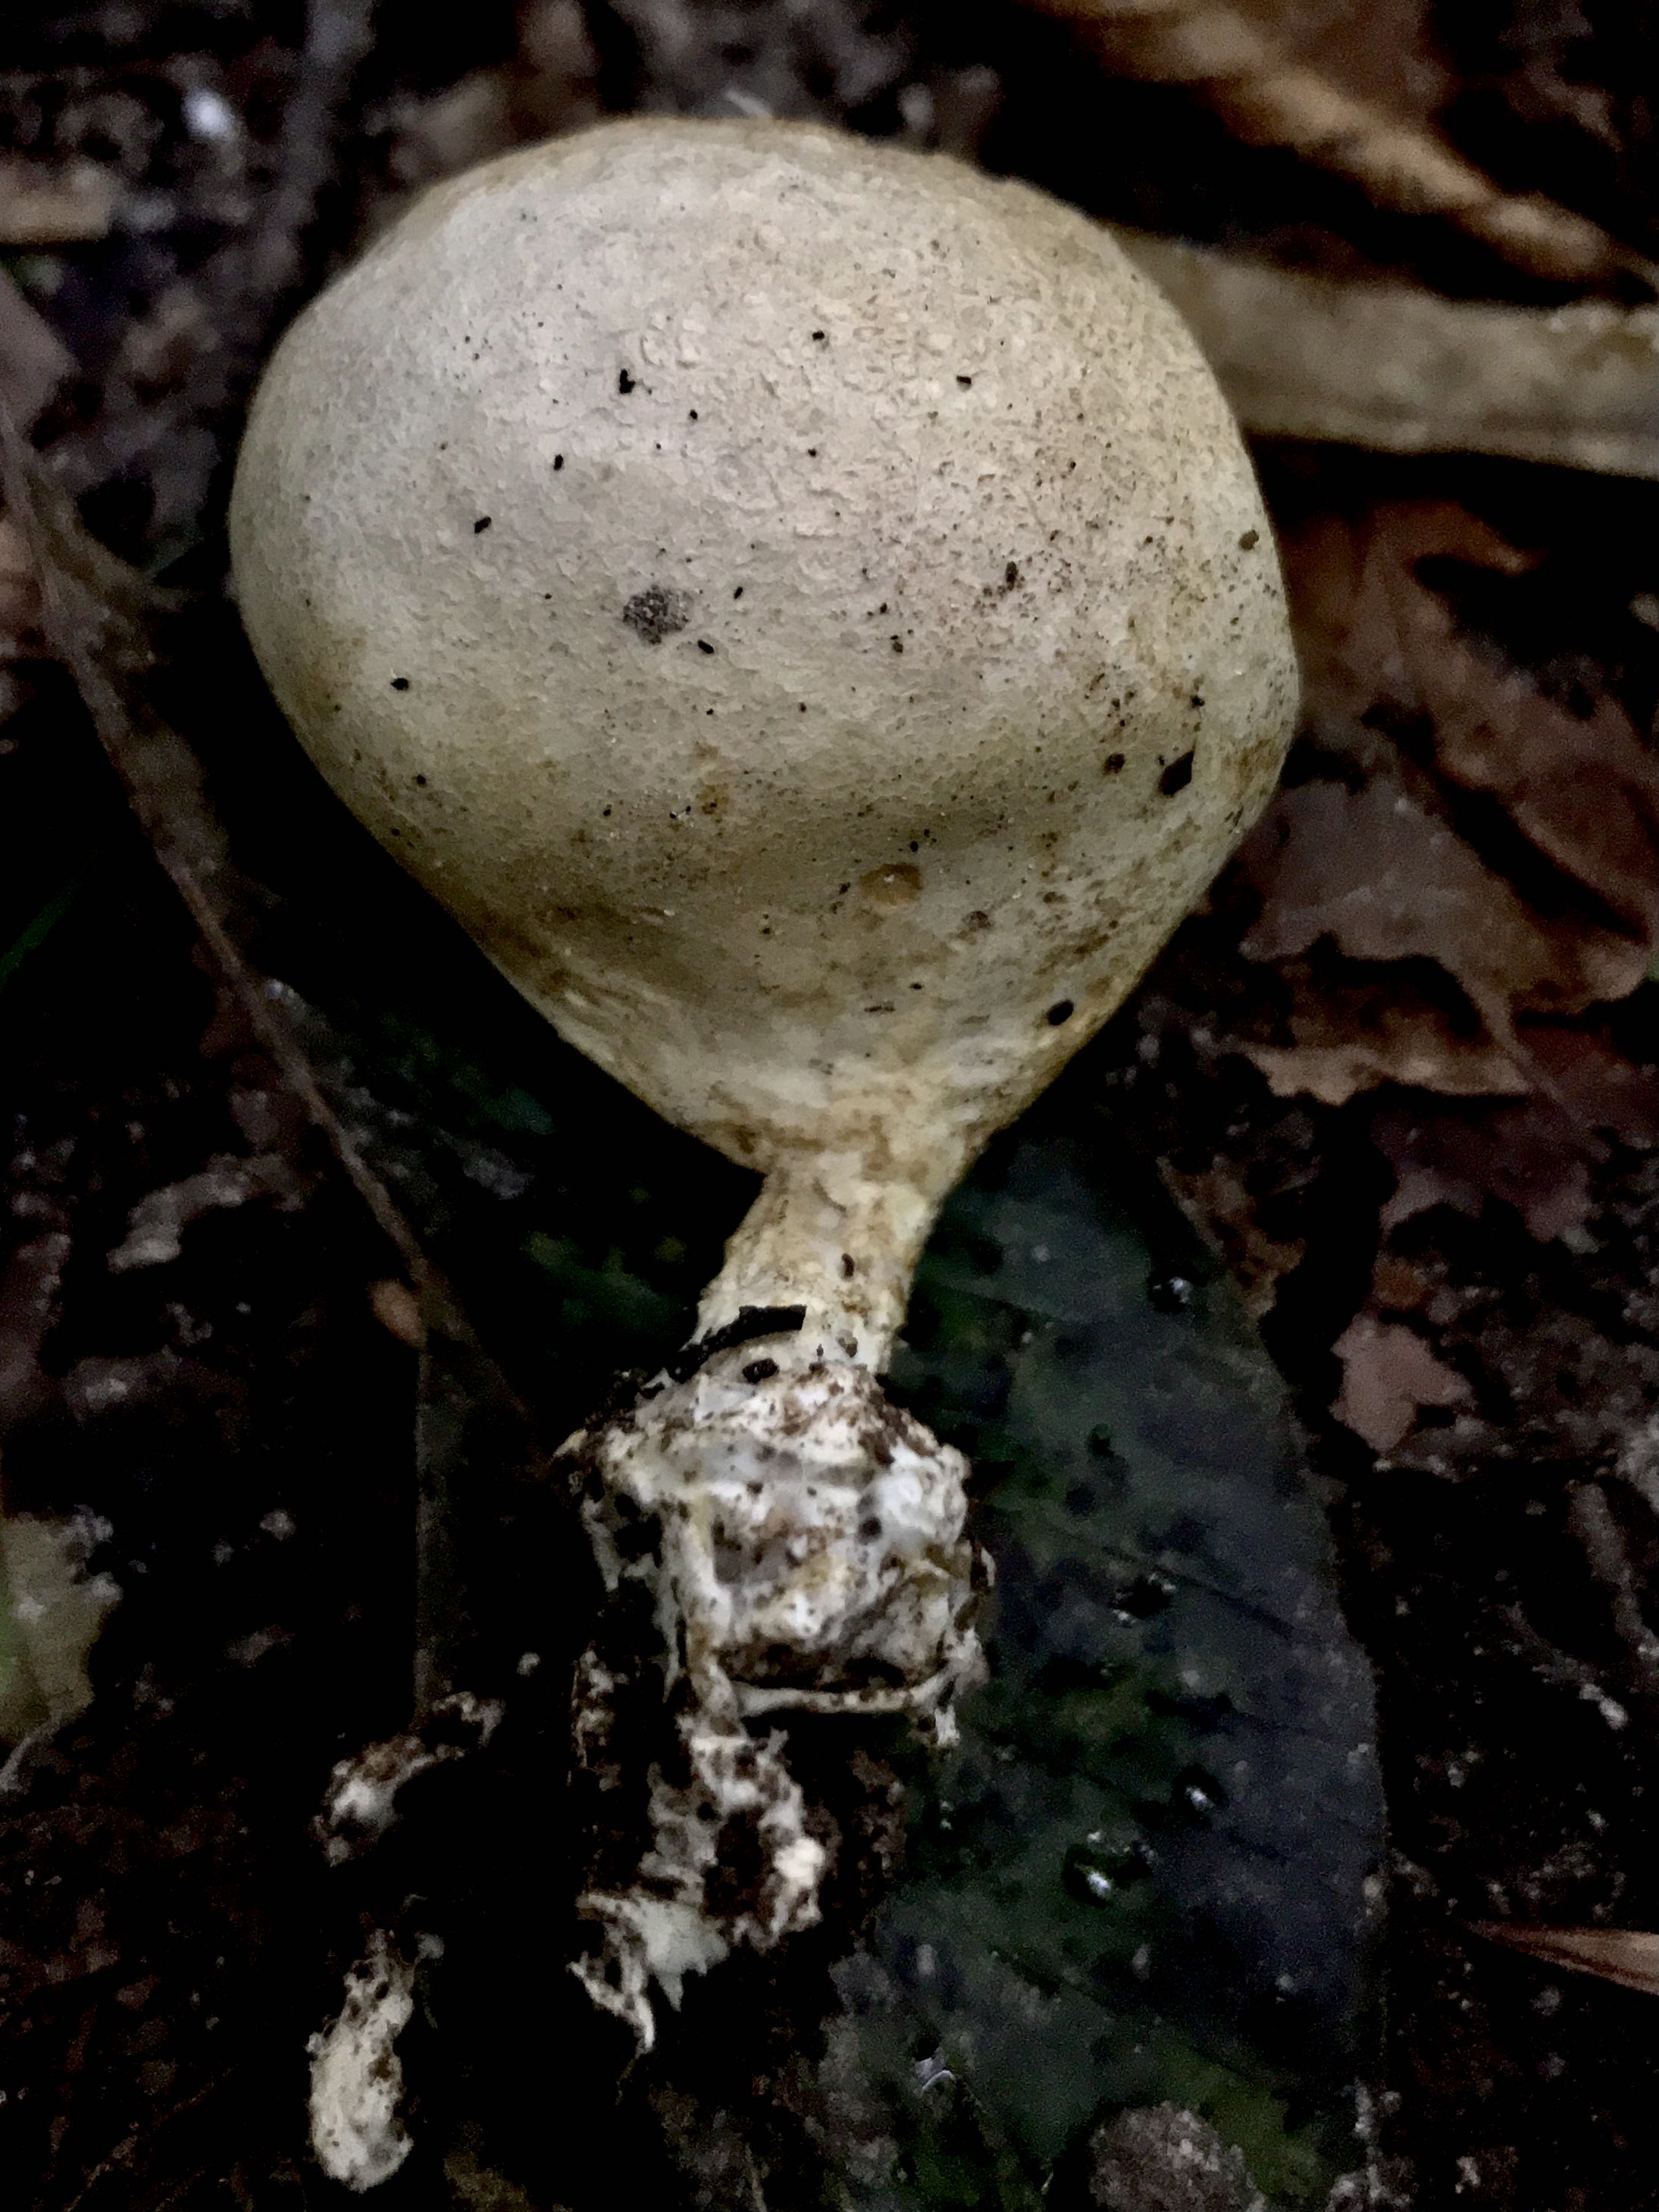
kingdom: Fungi
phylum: Basidiomycota
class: Agaricomycetes
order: Boletales
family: Sclerodermataceae
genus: Scleroderma
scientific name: Scleroderma verrucosum
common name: stilket bruskbold
